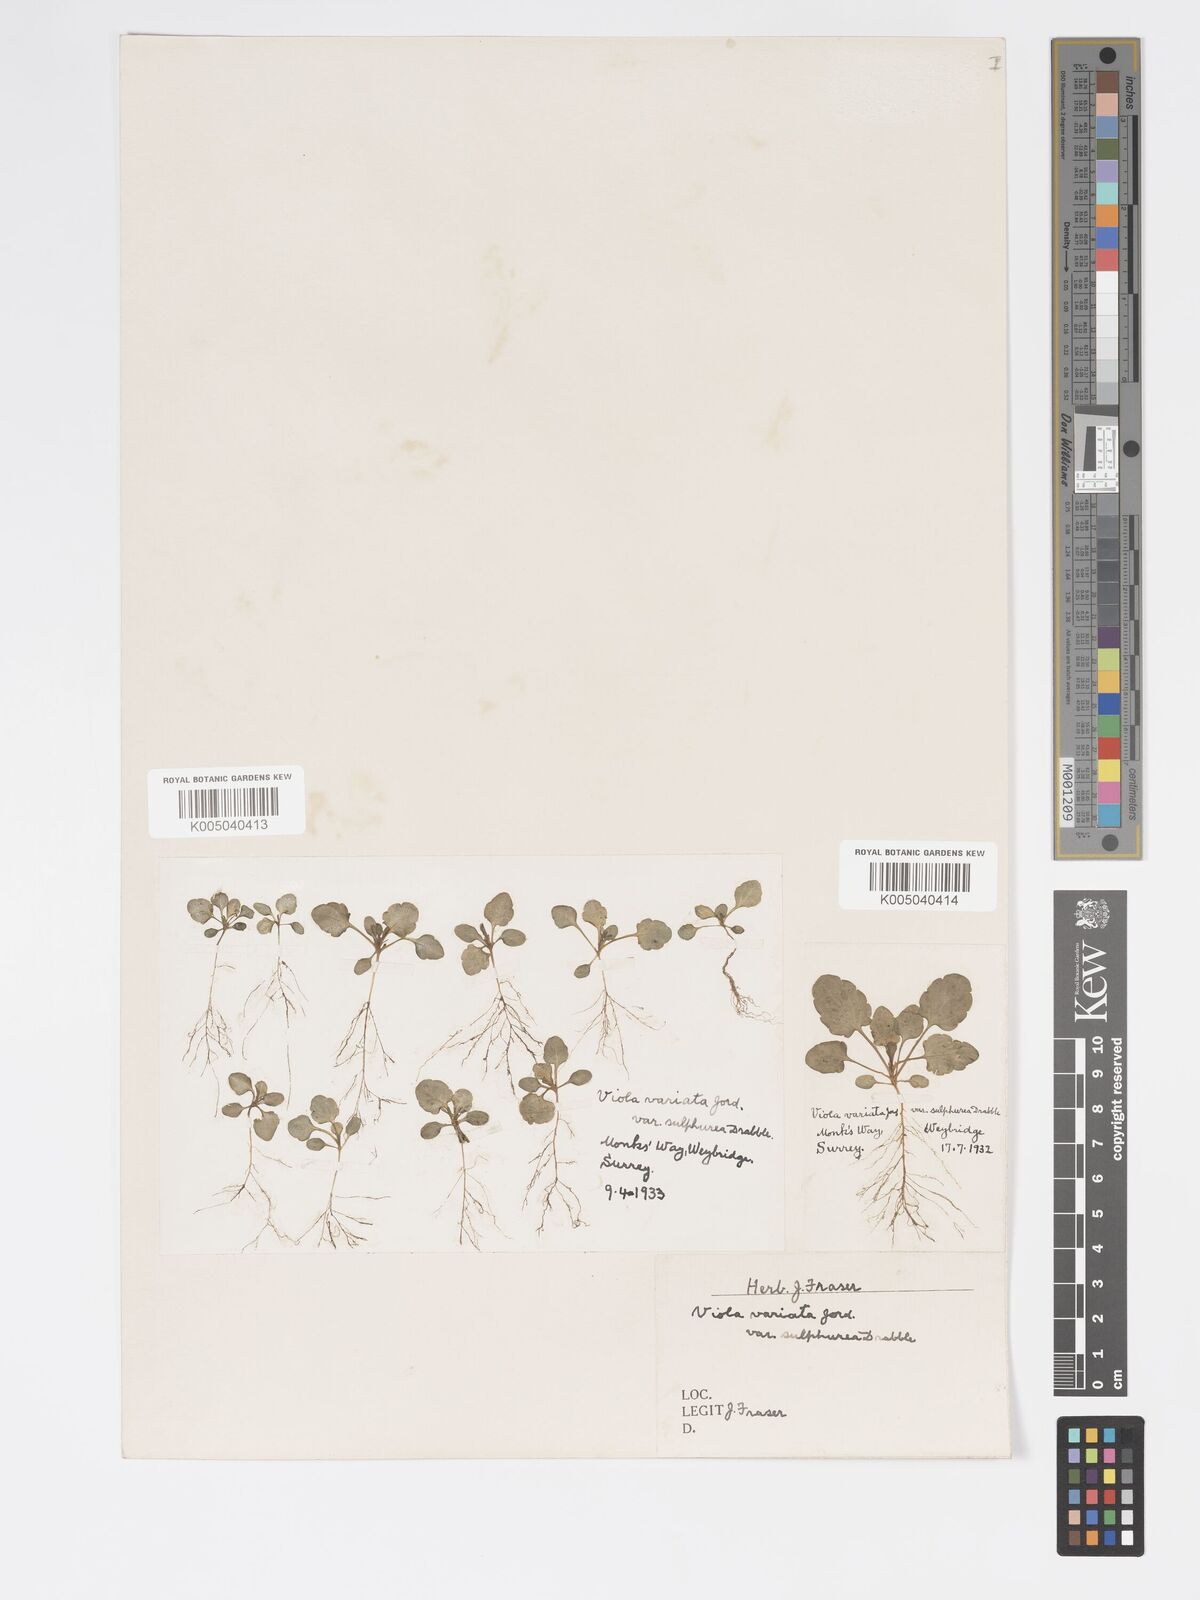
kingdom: Plantae
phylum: Tracheophyta
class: Magnoliopsida
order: Malpighiales
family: Violaceae
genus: Viola
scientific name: Viola arvensis
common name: Field pansy
